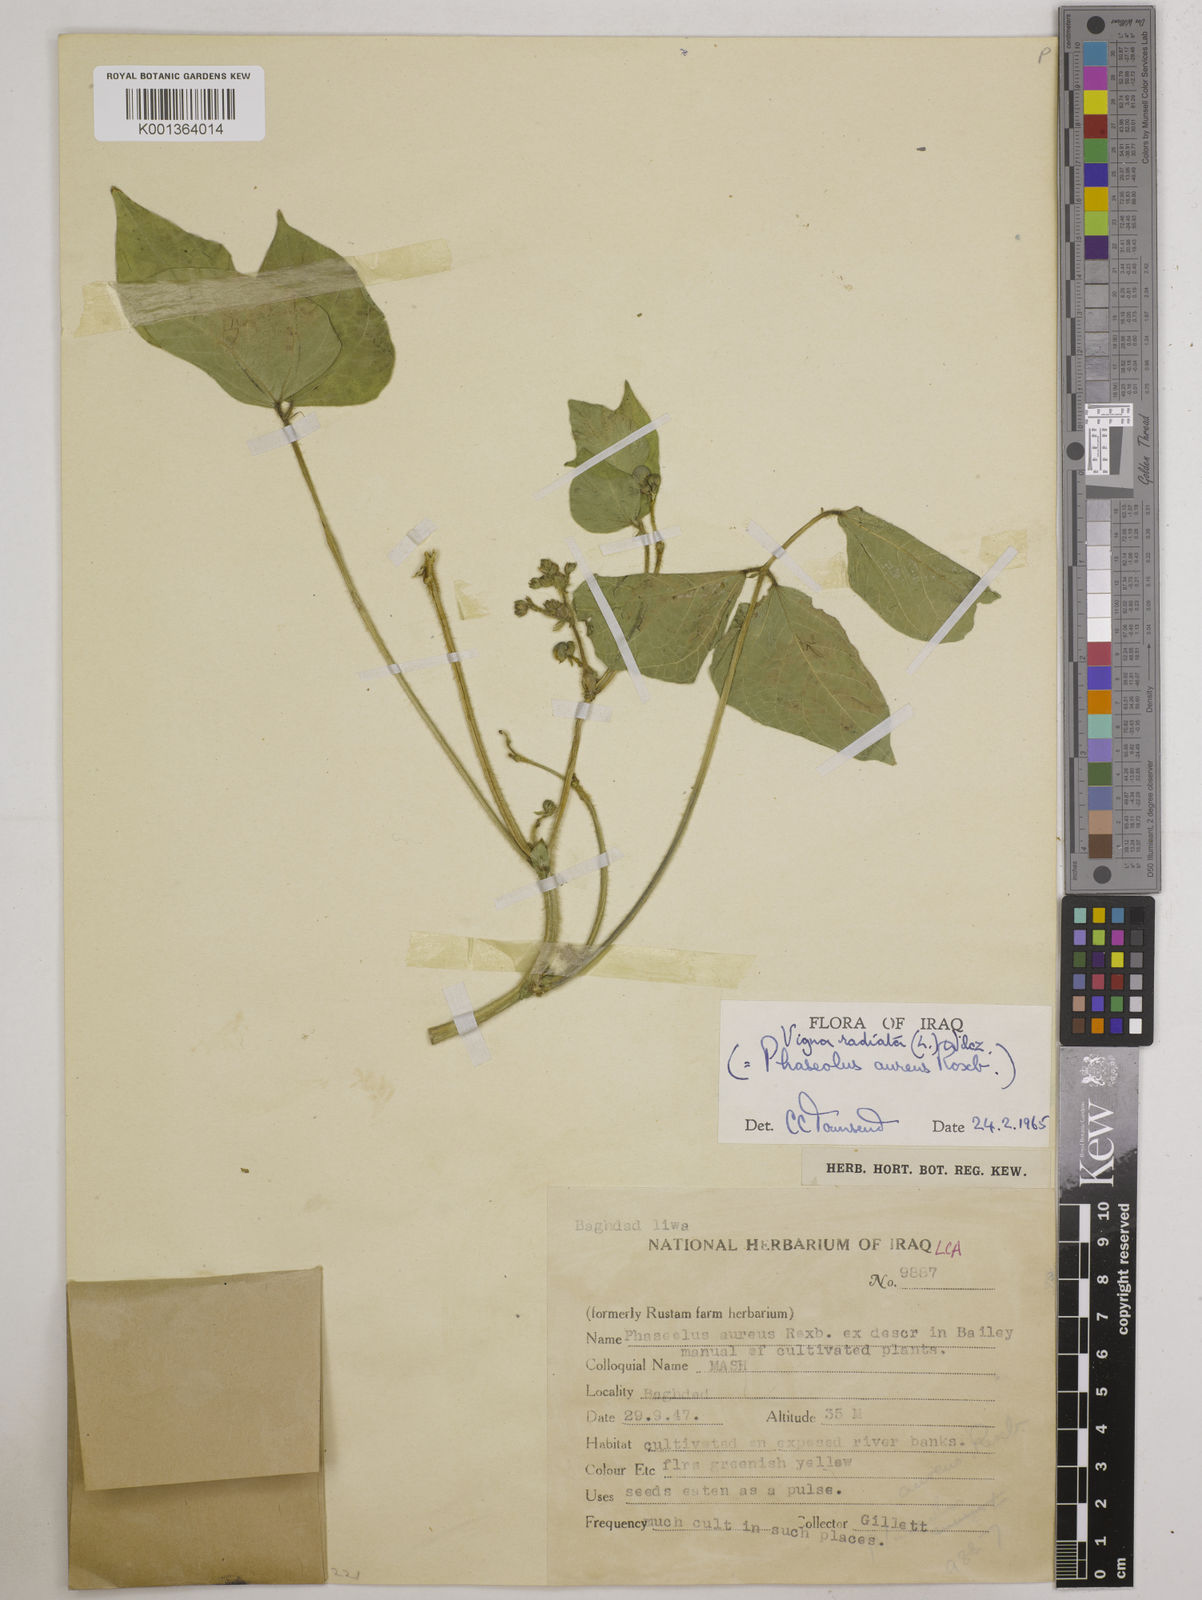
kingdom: Plantae
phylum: Tracheophyta
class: Magnoliopsida
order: Fabales
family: Fabaceae
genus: Vigna
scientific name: Vigna radiata
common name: Mung-bean
